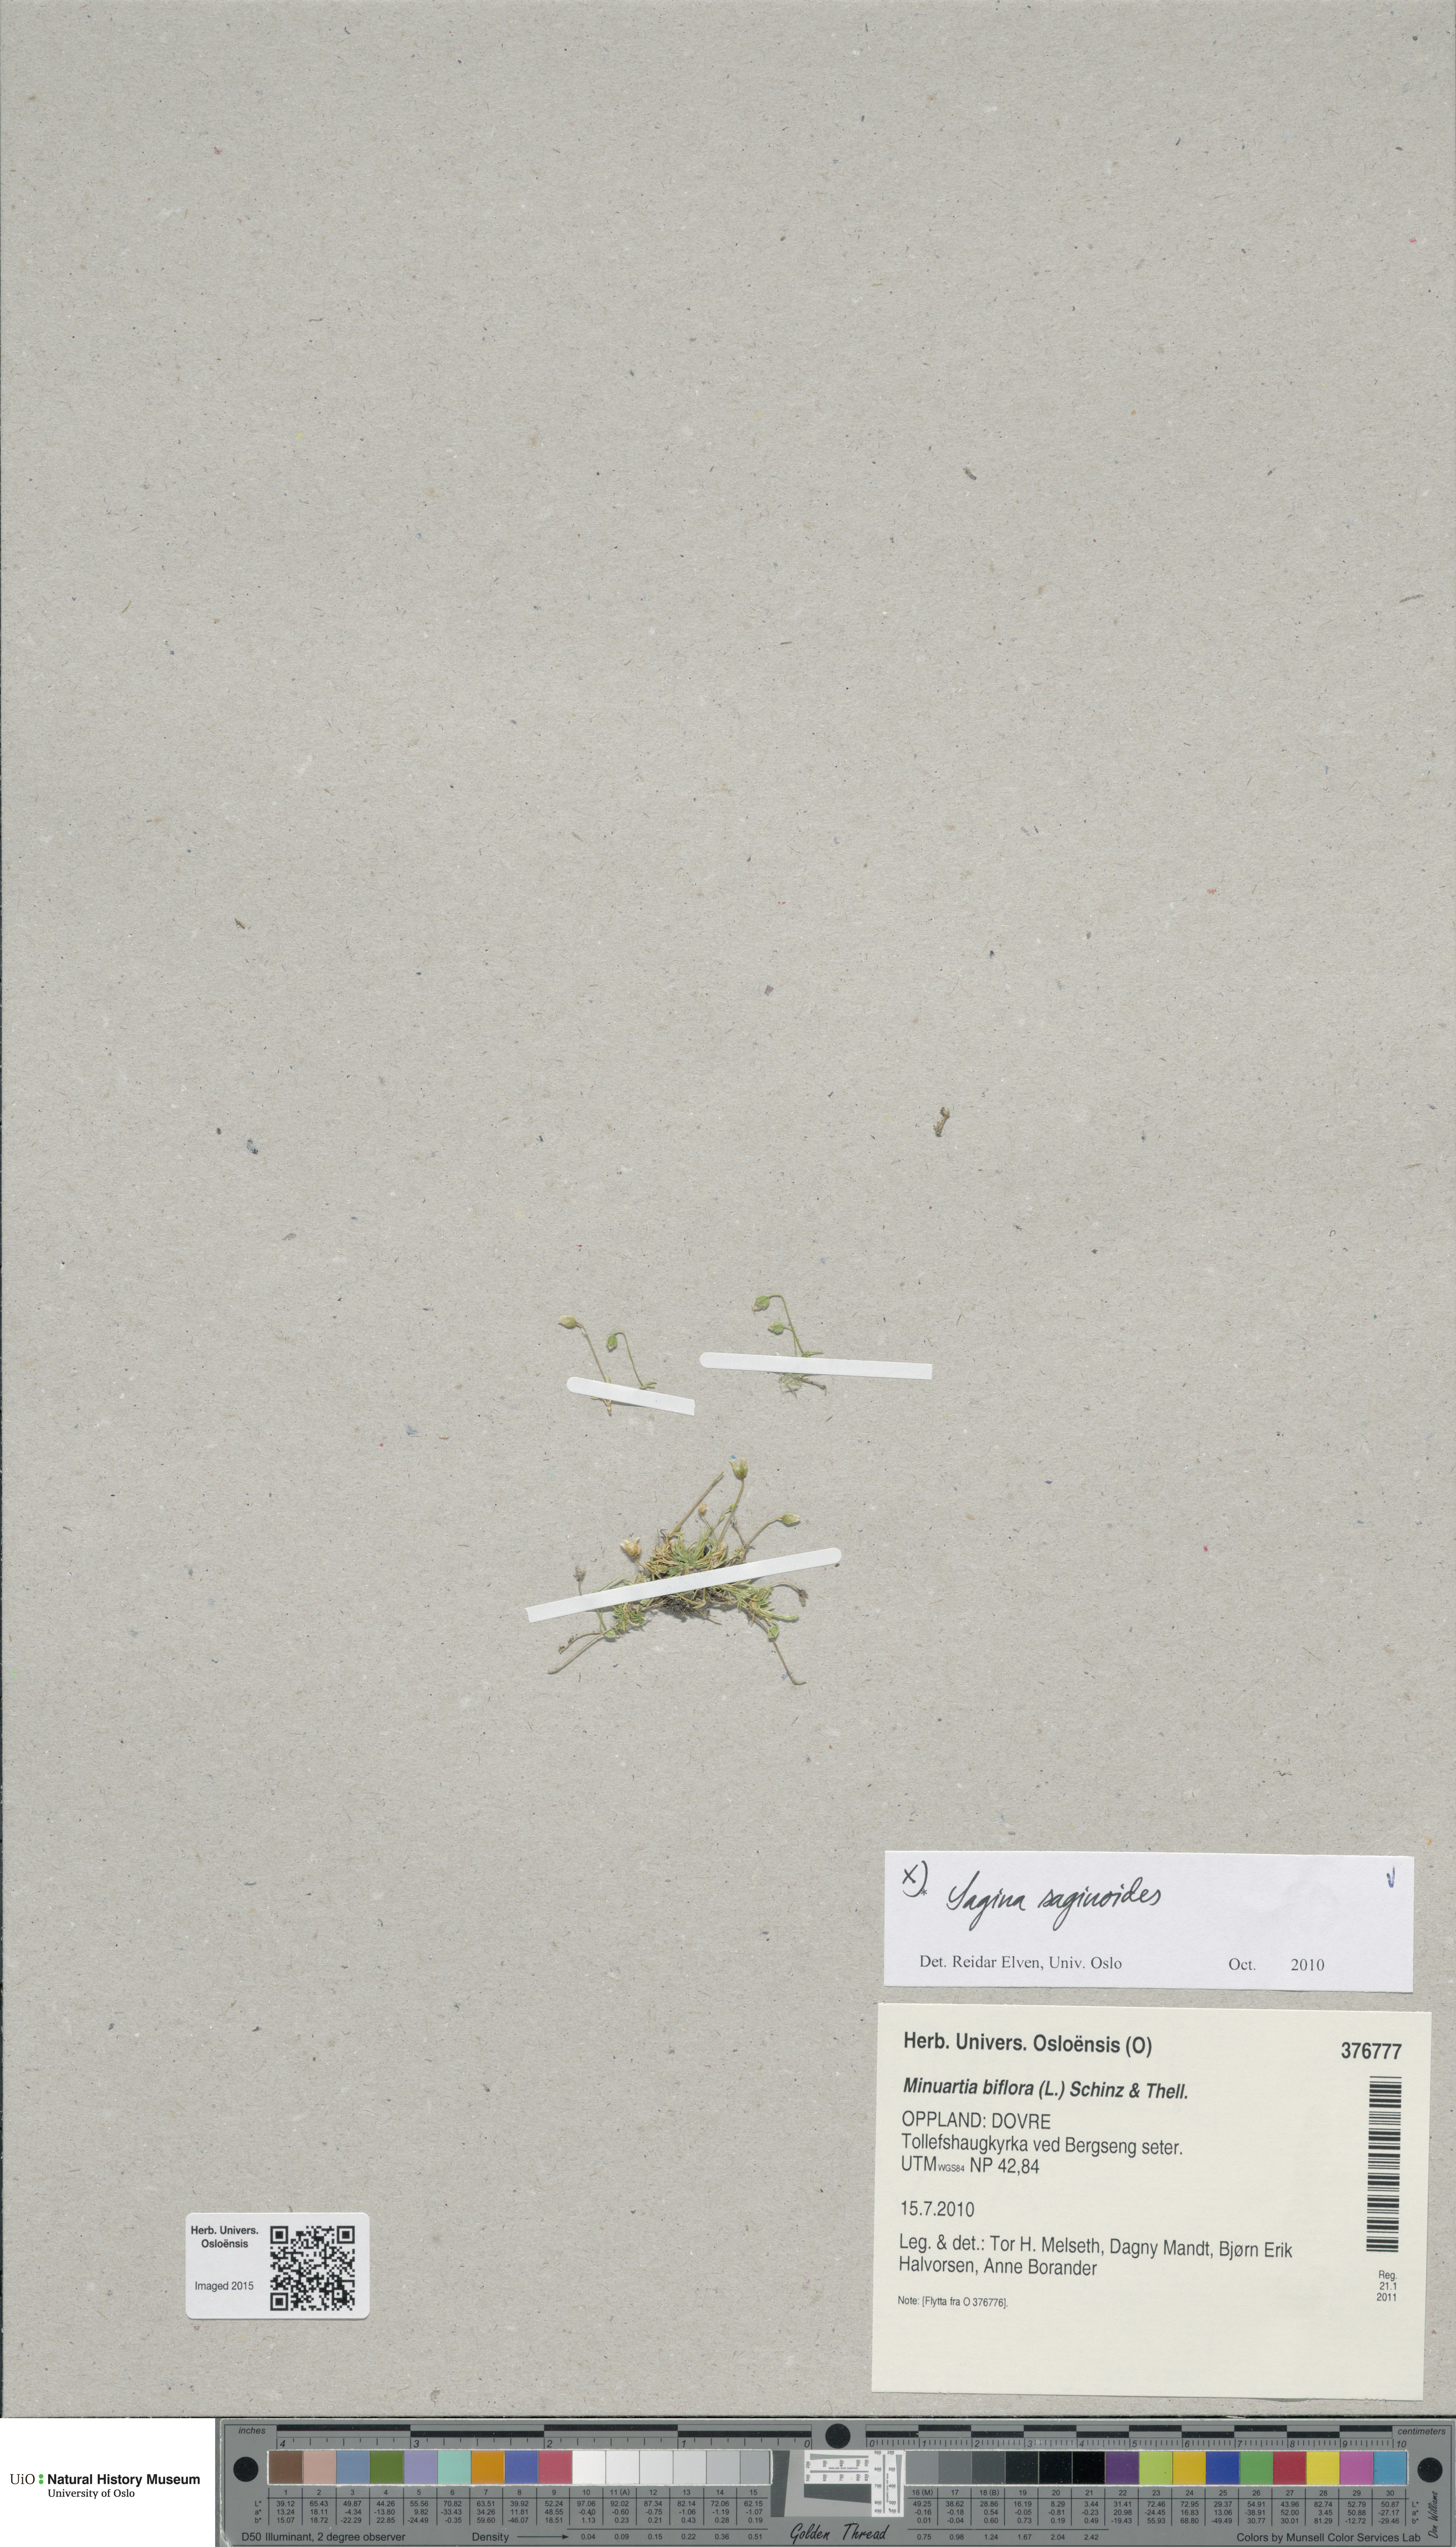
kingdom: Plantae
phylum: Tracheophyta
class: Magnoliopsida
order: Caryophyllales
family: Caryophyllaceae
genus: Sagina
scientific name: Sagina saginoides
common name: Alpine pearlwort
